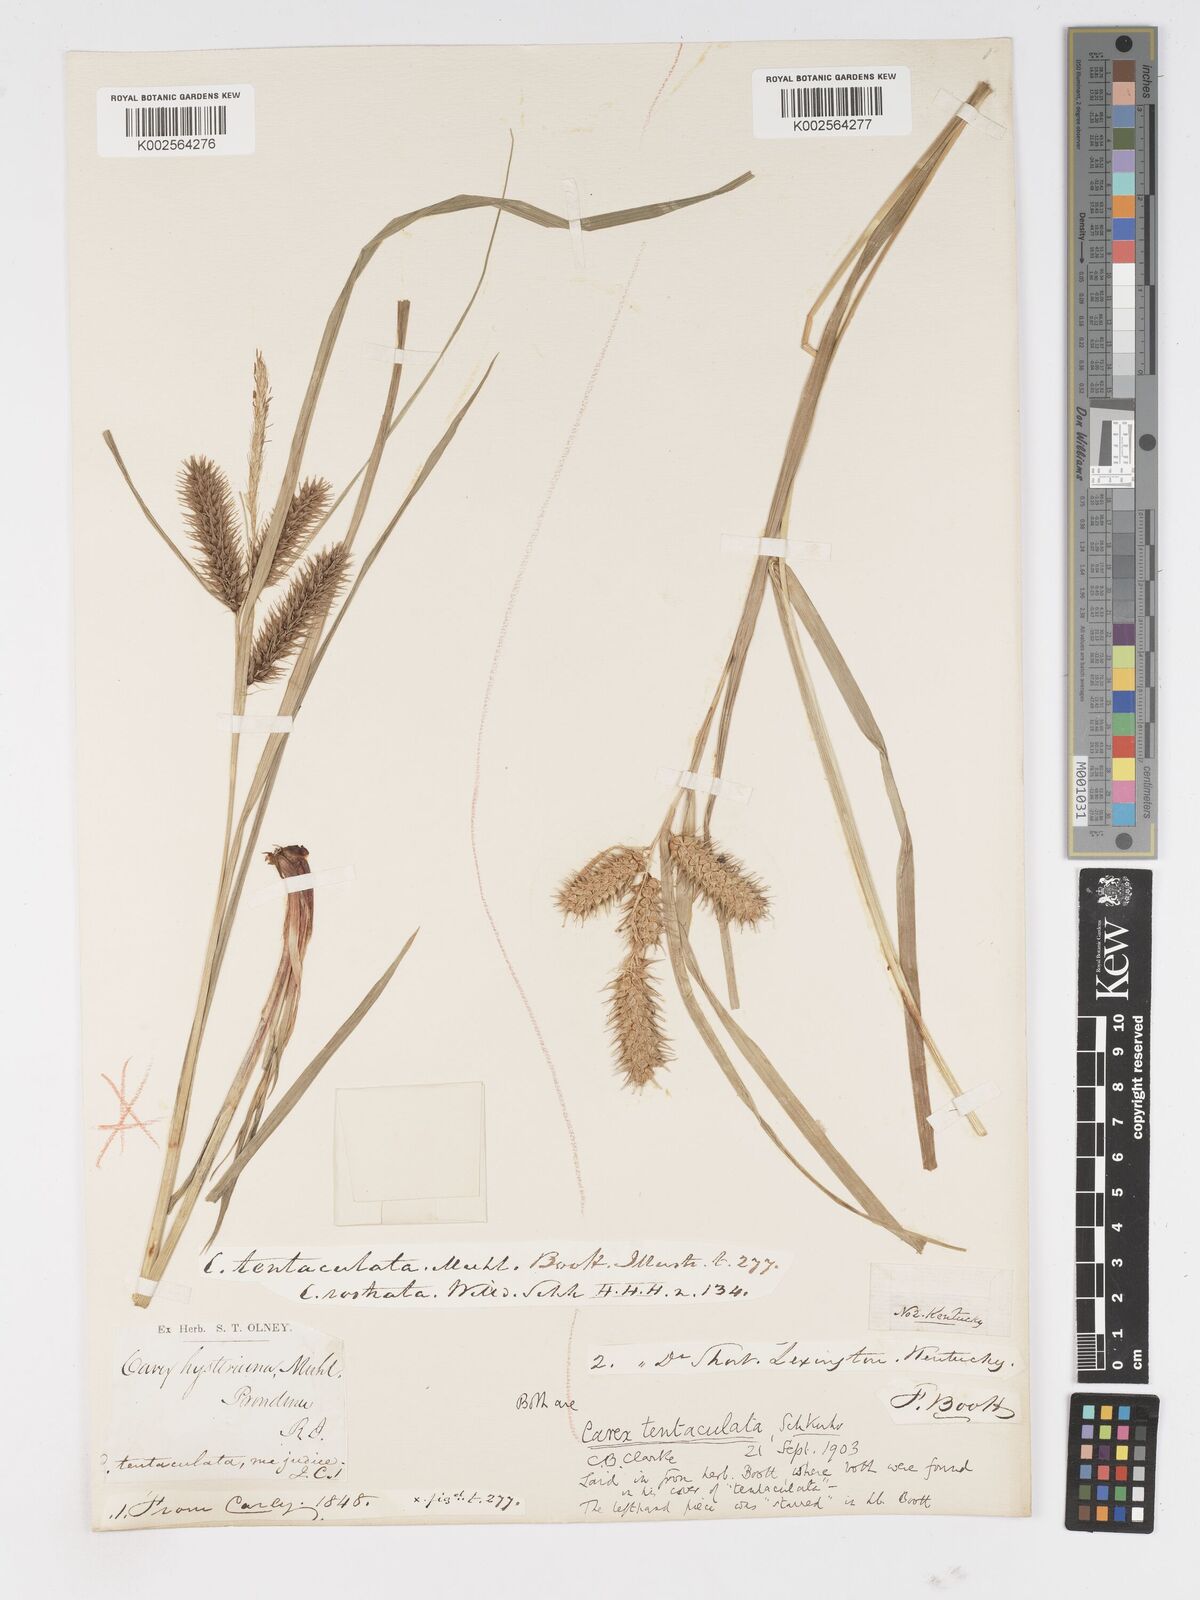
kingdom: Plantae
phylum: Tracheophyta
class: Liliopsida
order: Poales
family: Cyperaceae
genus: Carex
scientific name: Carex lurida
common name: Sallow sedge
